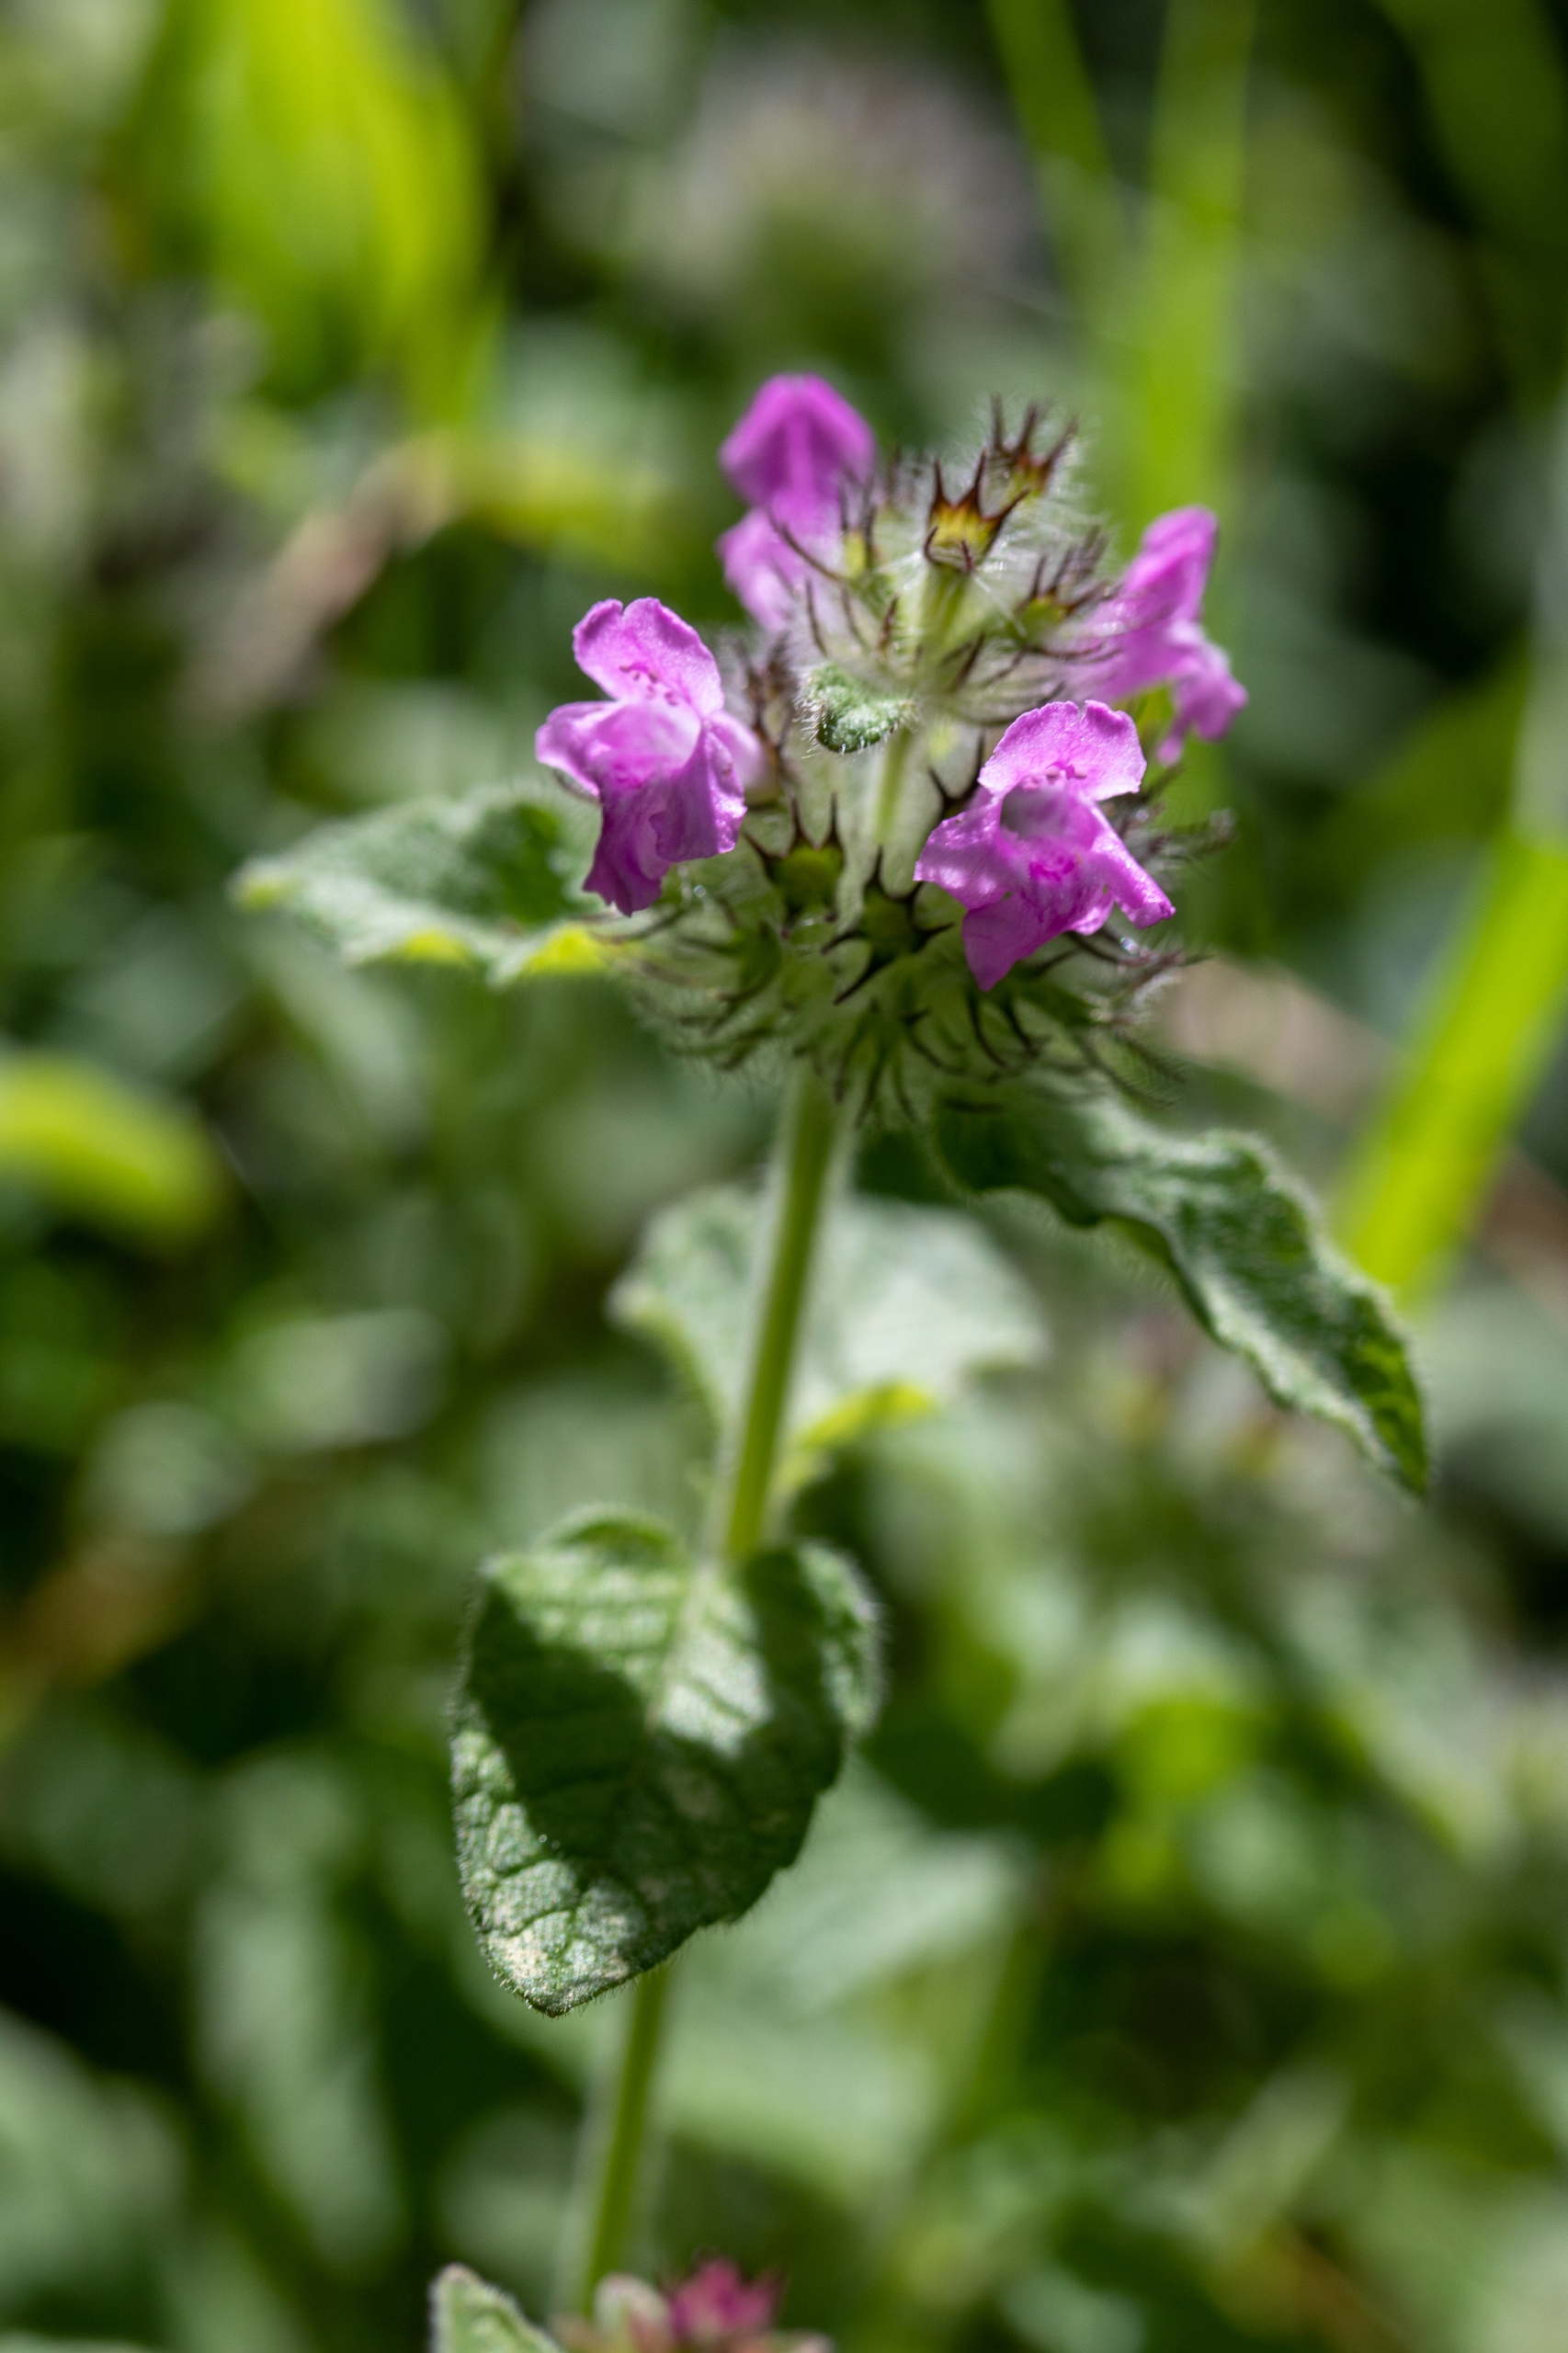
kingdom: Plantae
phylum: Tracheophyta
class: Magnoliopsida
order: Lamiales
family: Lamiaceae
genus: Clinopodium
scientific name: Clinopodium vulgare
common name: Kransbørste
